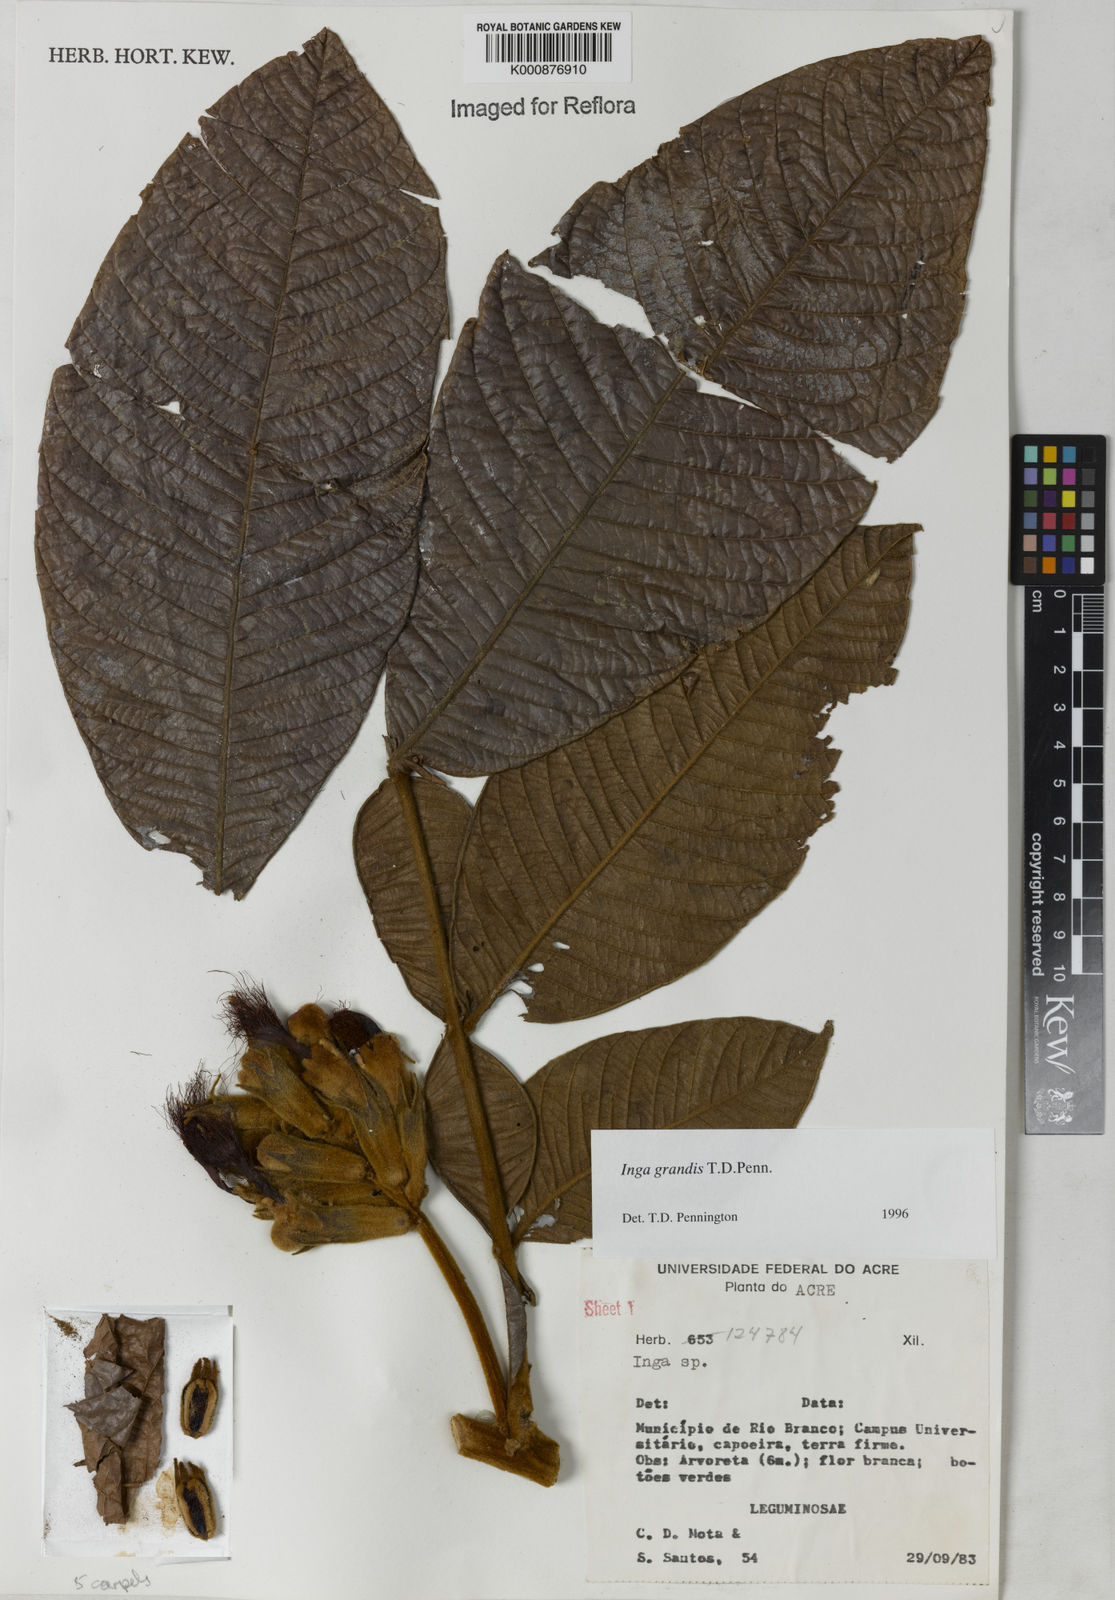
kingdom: Plantae
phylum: Tracheophyta
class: Magnoliopsida
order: Fabales
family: Fabaceae
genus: Inga
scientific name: Inga grandis
